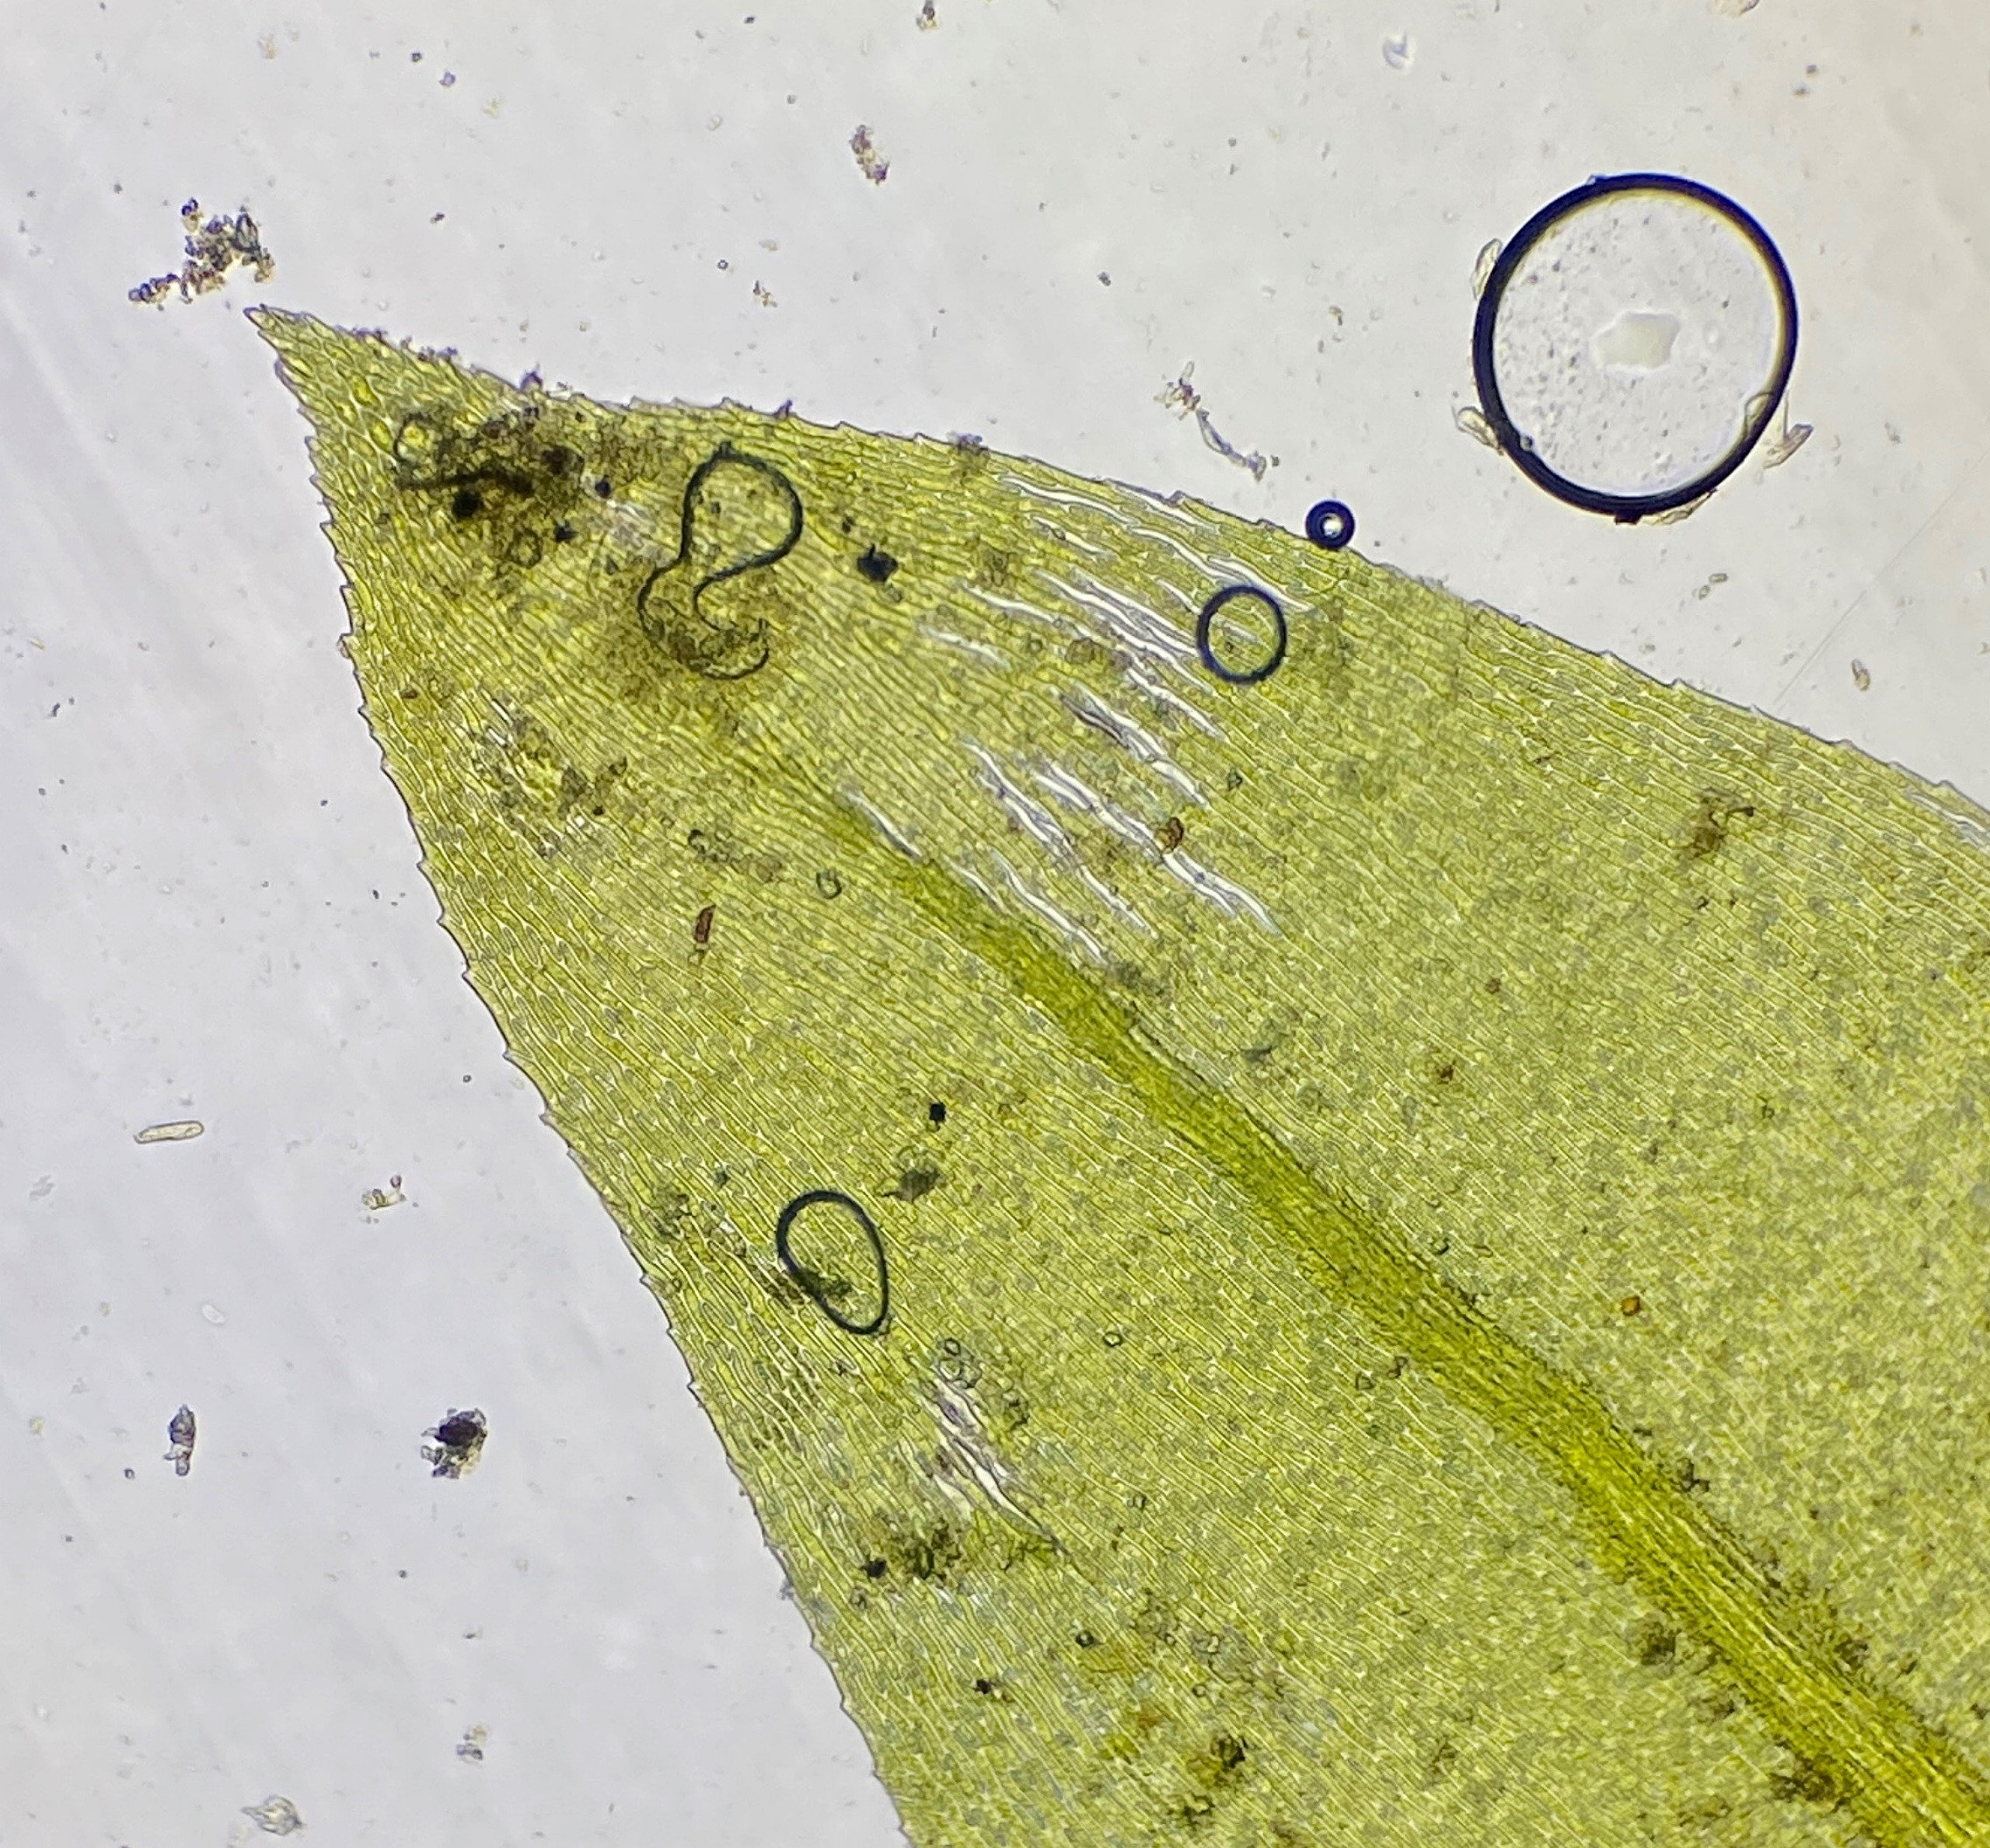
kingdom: Plantae
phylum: Bryophyta
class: Bryopsida
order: Hypnales
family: Brachytheciaceae
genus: Rhynchostegium
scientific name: Rhynchostegium riparioides
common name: Robust strømmos
